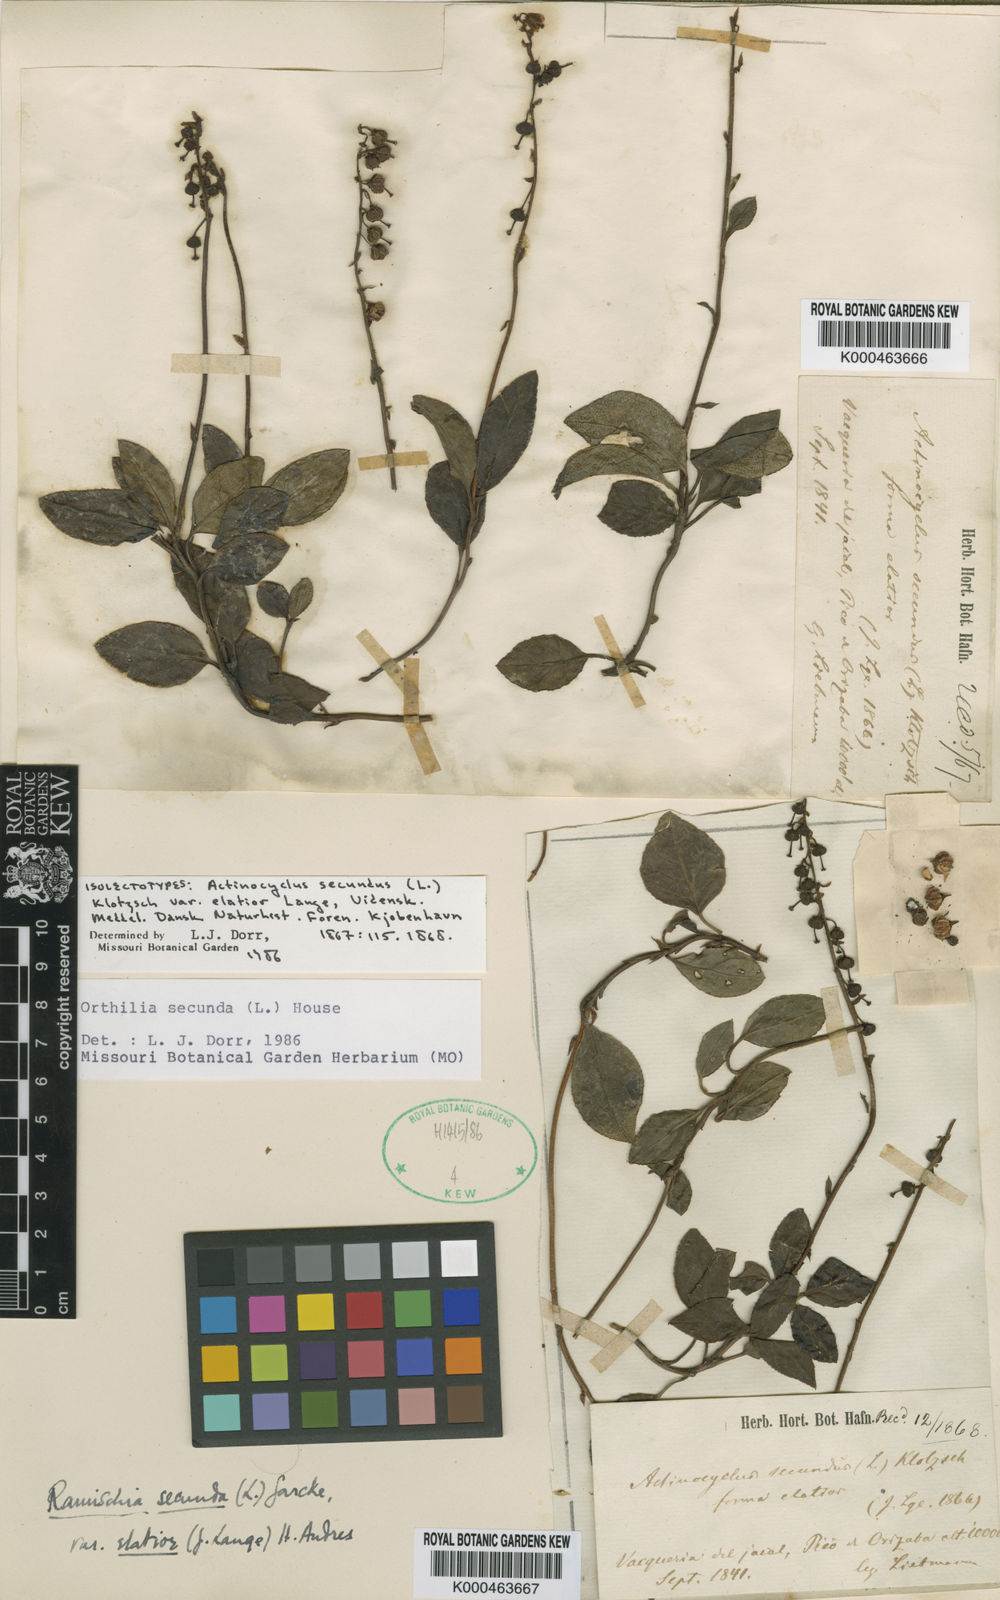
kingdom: Plantae
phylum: Tracheophyta
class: Magnoliopsida
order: Ericales
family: Ericaceae
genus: Orthilia
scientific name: Orthilia secunda
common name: One-sided orthilia
